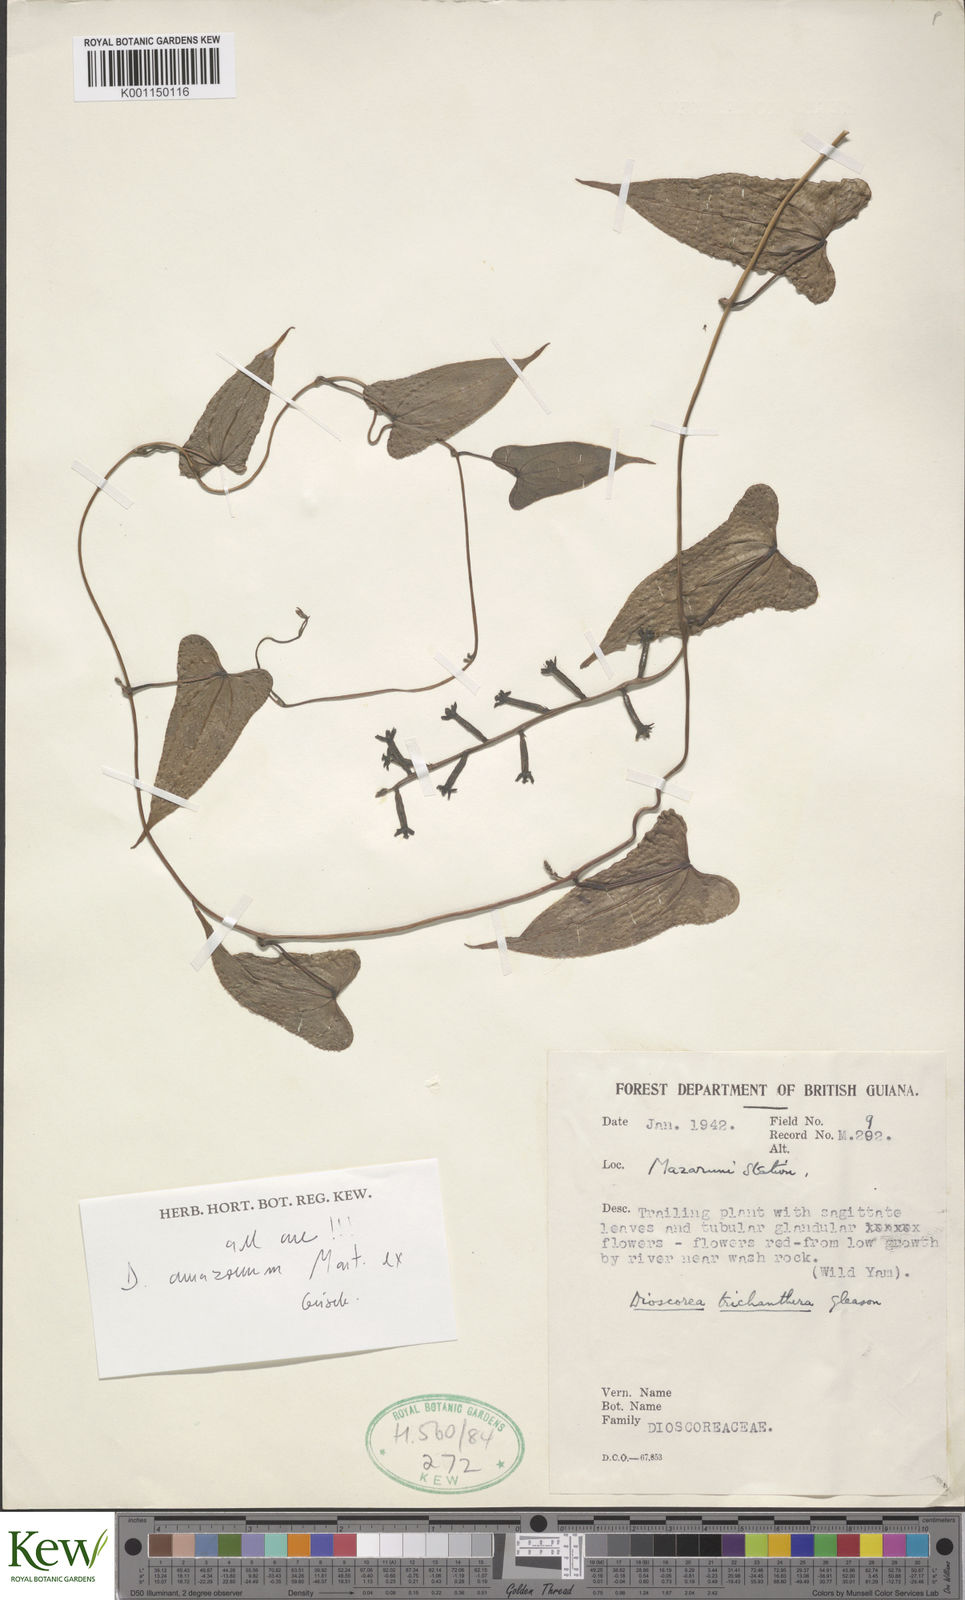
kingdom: Plantae
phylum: Tracheophyta
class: Liliopsida
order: Dioscoreales
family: Dioscoreaceae
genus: Dioscorea
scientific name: Dioscorea trichanthera
